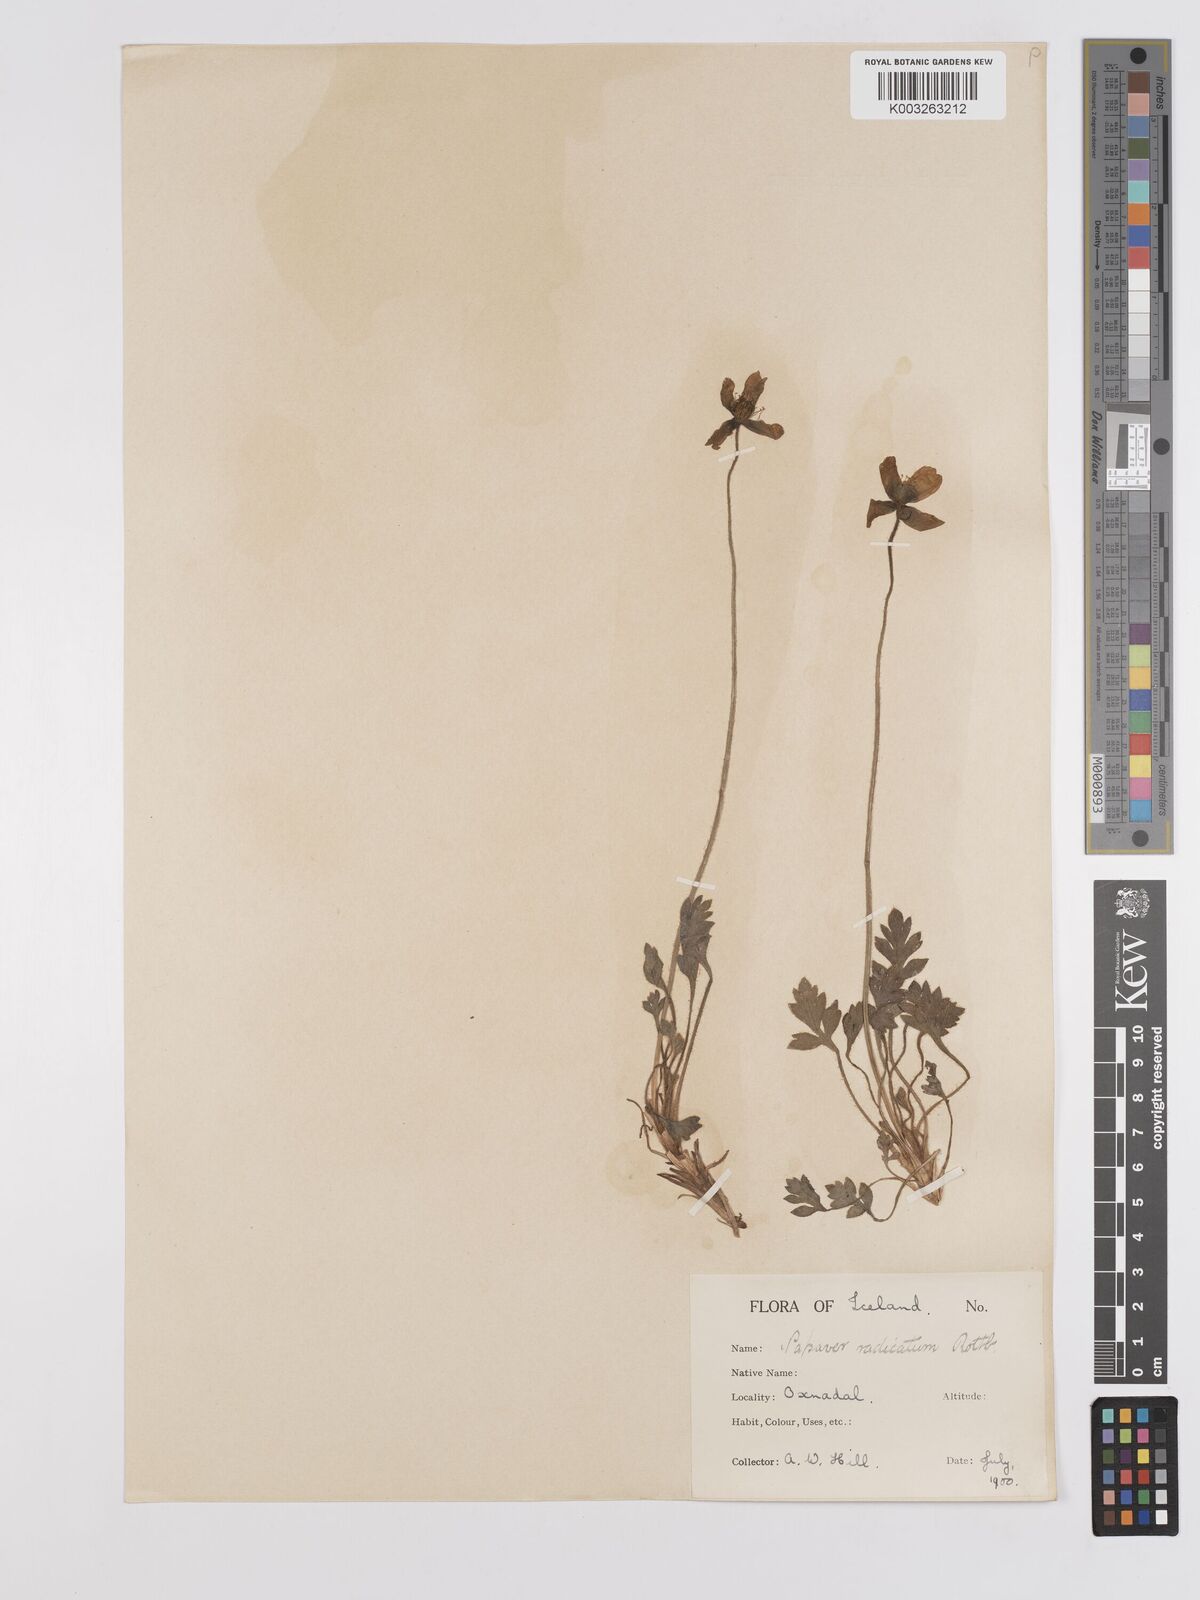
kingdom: Plantae
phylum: Tracheophyta
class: Magnoliopsida
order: Ranunculales
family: Papaveraceae
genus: Papaver
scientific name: Papaver radicatum
